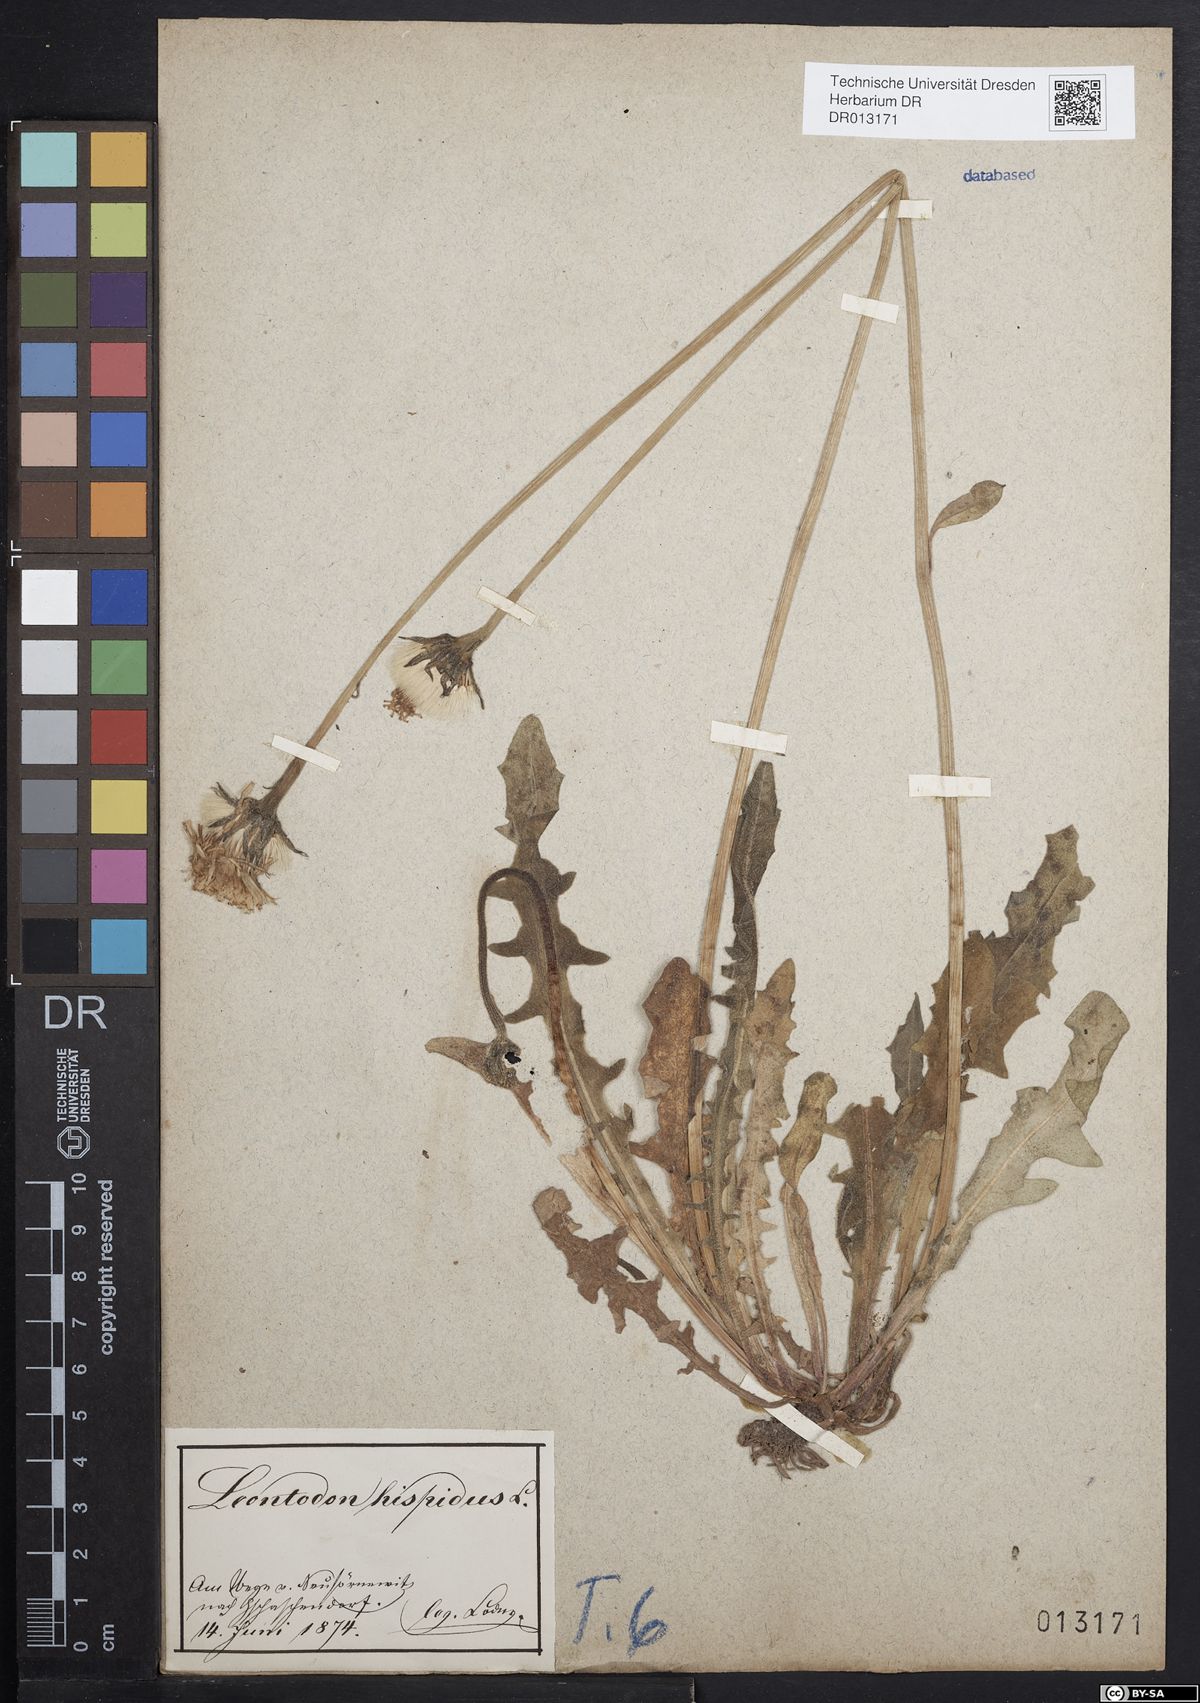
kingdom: Plantae
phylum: Tracheophyta
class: Magnoliopsida
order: Asterales
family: Asteraceae
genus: Leontodon
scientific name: Leontodon hispidus
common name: Rough hawkbit
